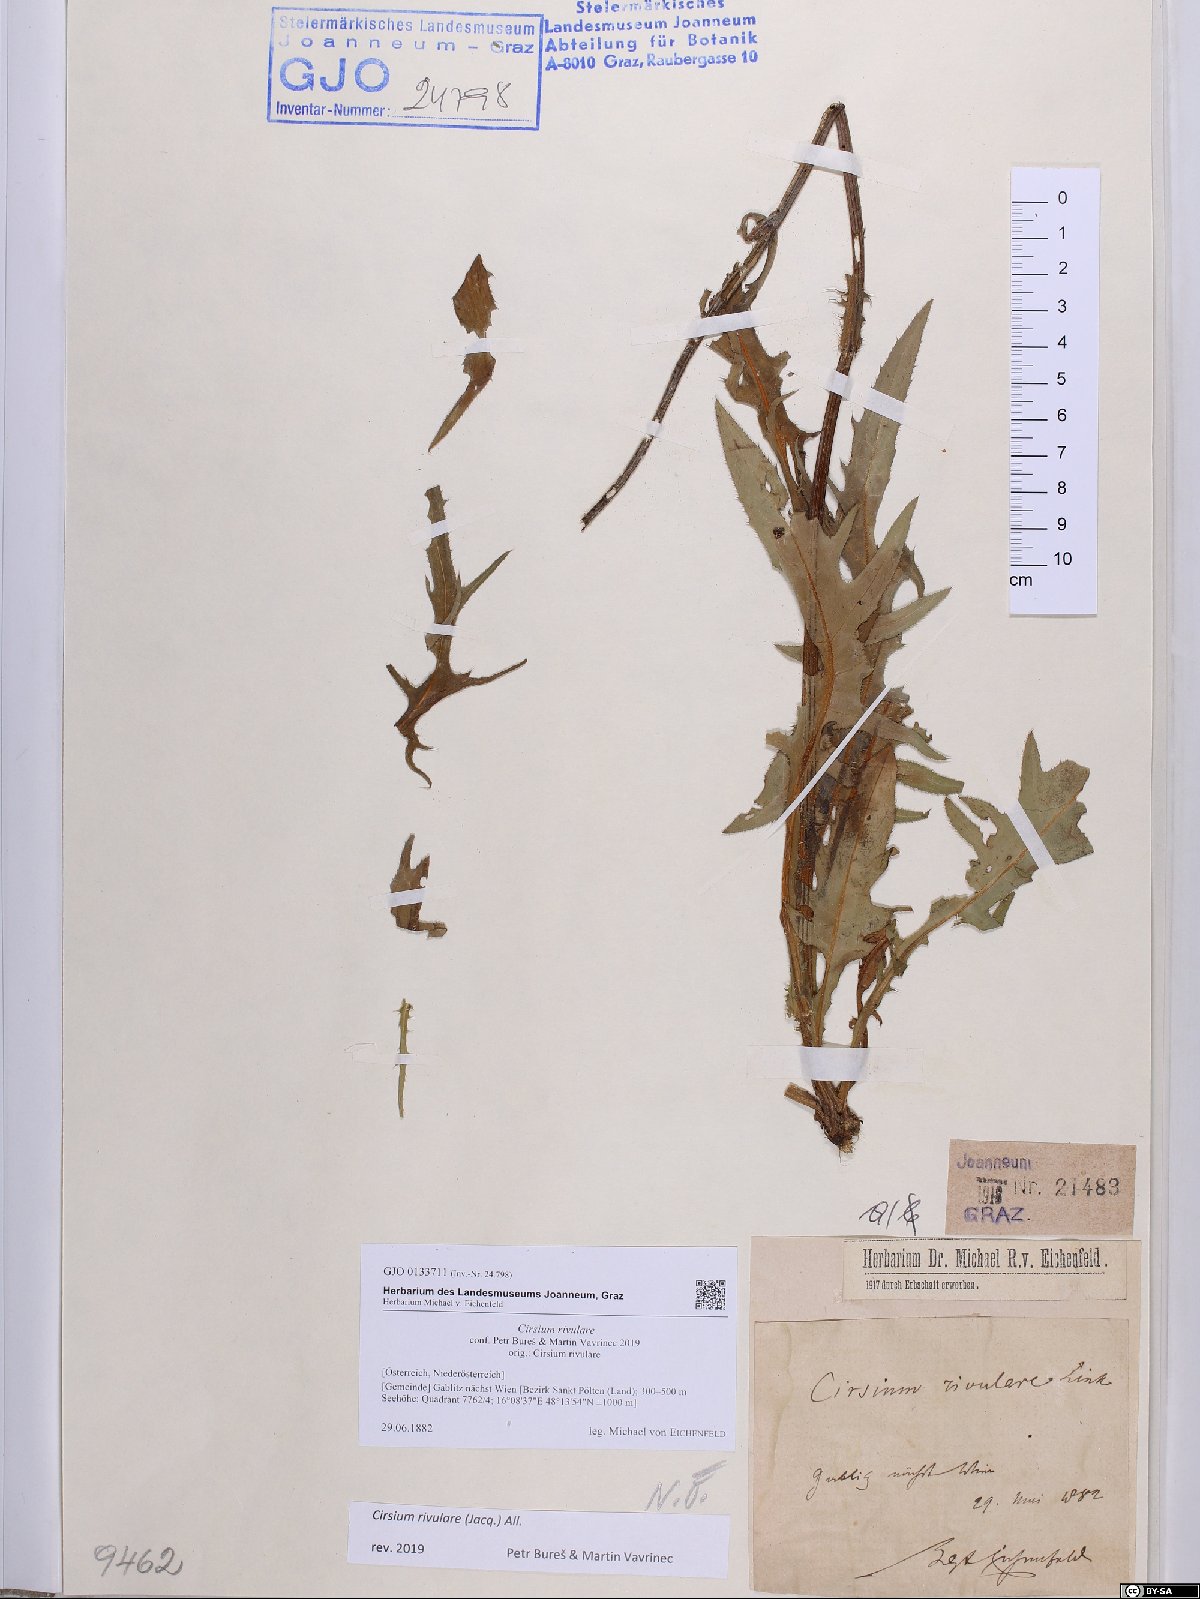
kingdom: Plantae
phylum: Tracheophyta
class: Magnoliopsida
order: Asterales
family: Asteraceae
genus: Cirsium
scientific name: Cirsium rivulare
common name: Brook thistle
